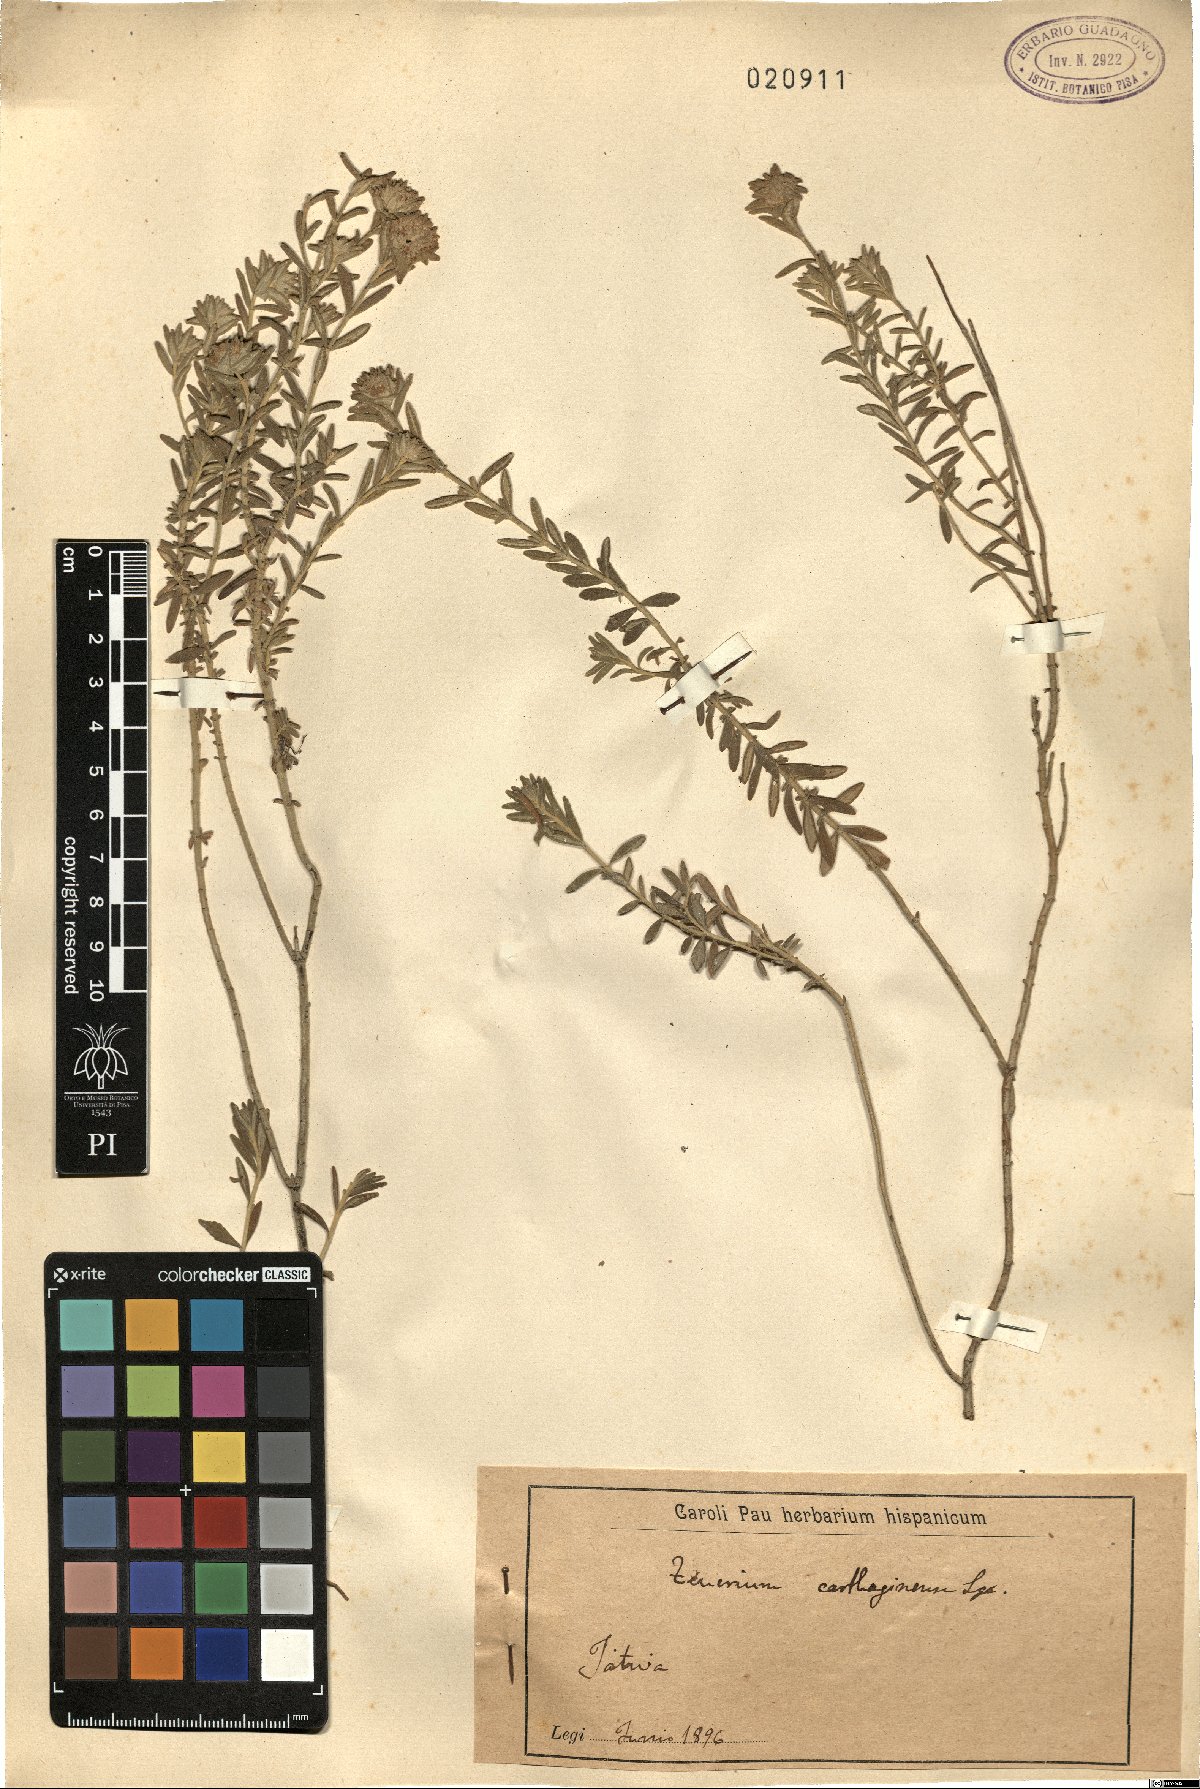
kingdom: Plantae
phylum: Tracheophyta
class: Magnoliopsida
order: Lamiales
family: Lamiaceae
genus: Teucrium
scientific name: Teucrium carthaginense
